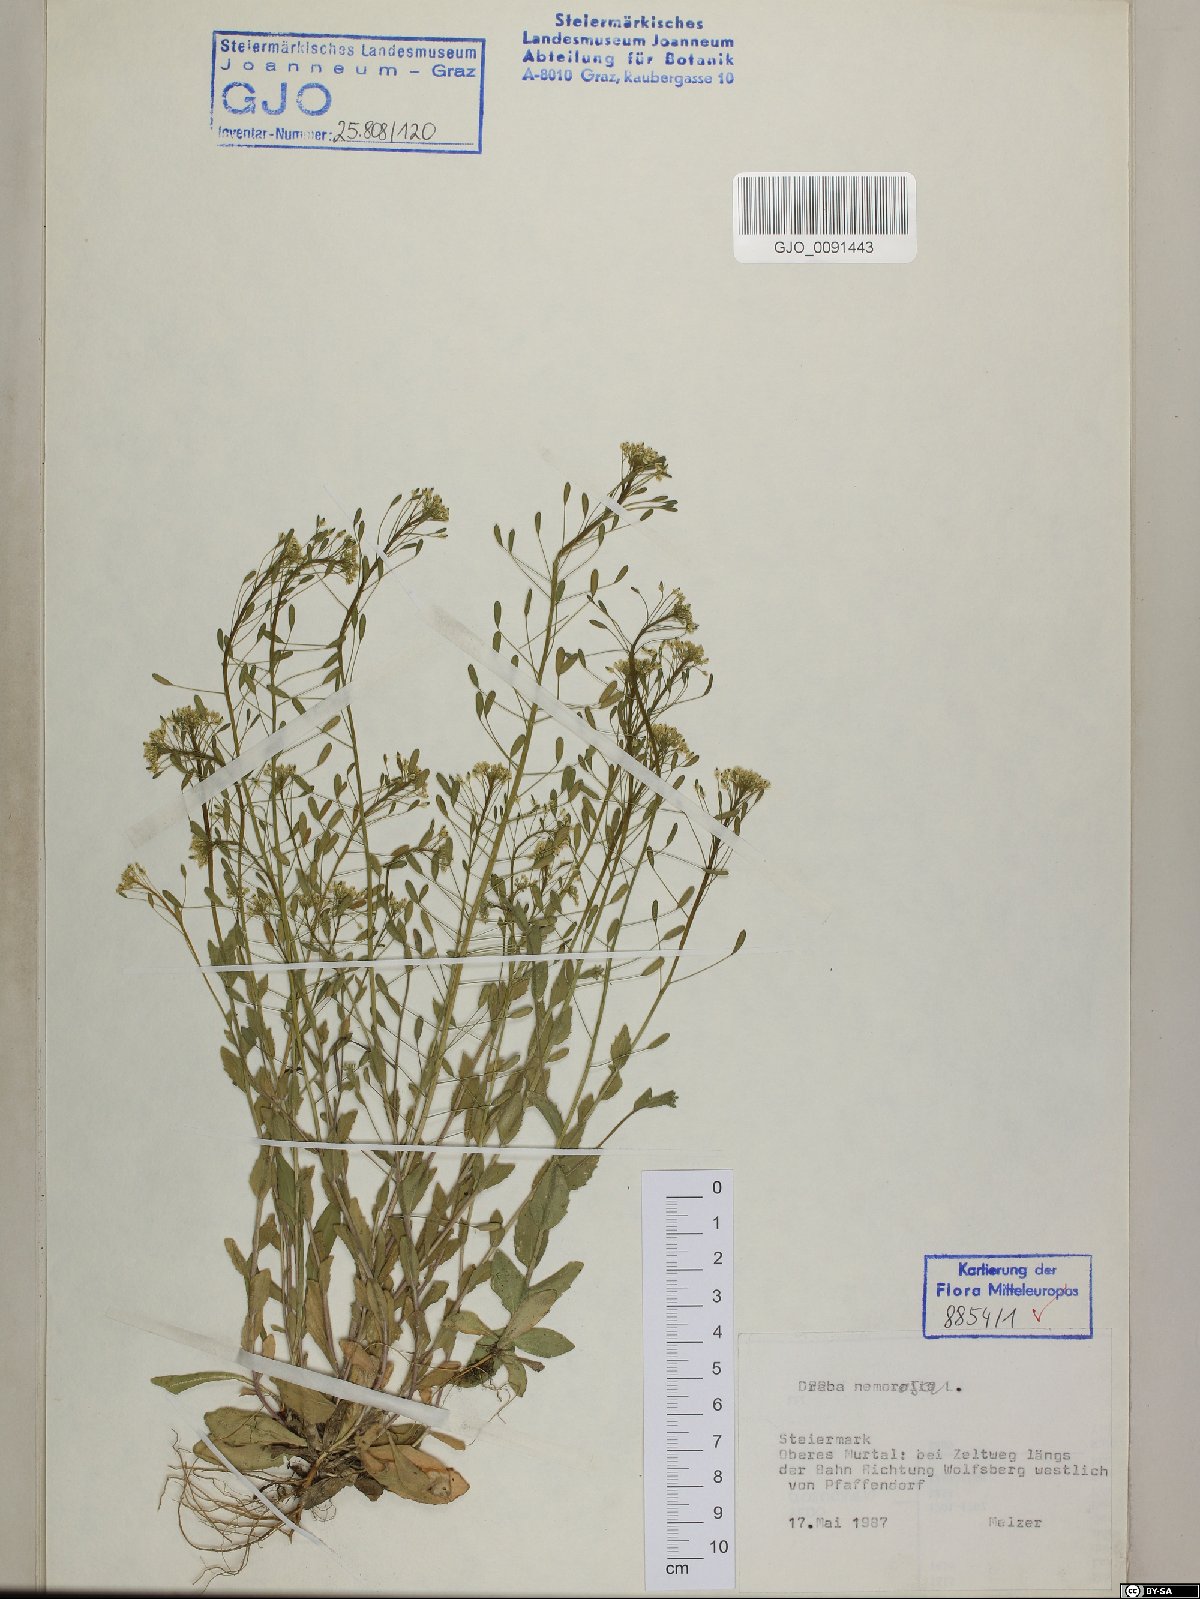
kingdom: Plantae
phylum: Tracheophyta
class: Magnoliopsida
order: Brassicales
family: Brassicaceae
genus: Draba
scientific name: Draba nemorosa
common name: Wood whitlow-grass
